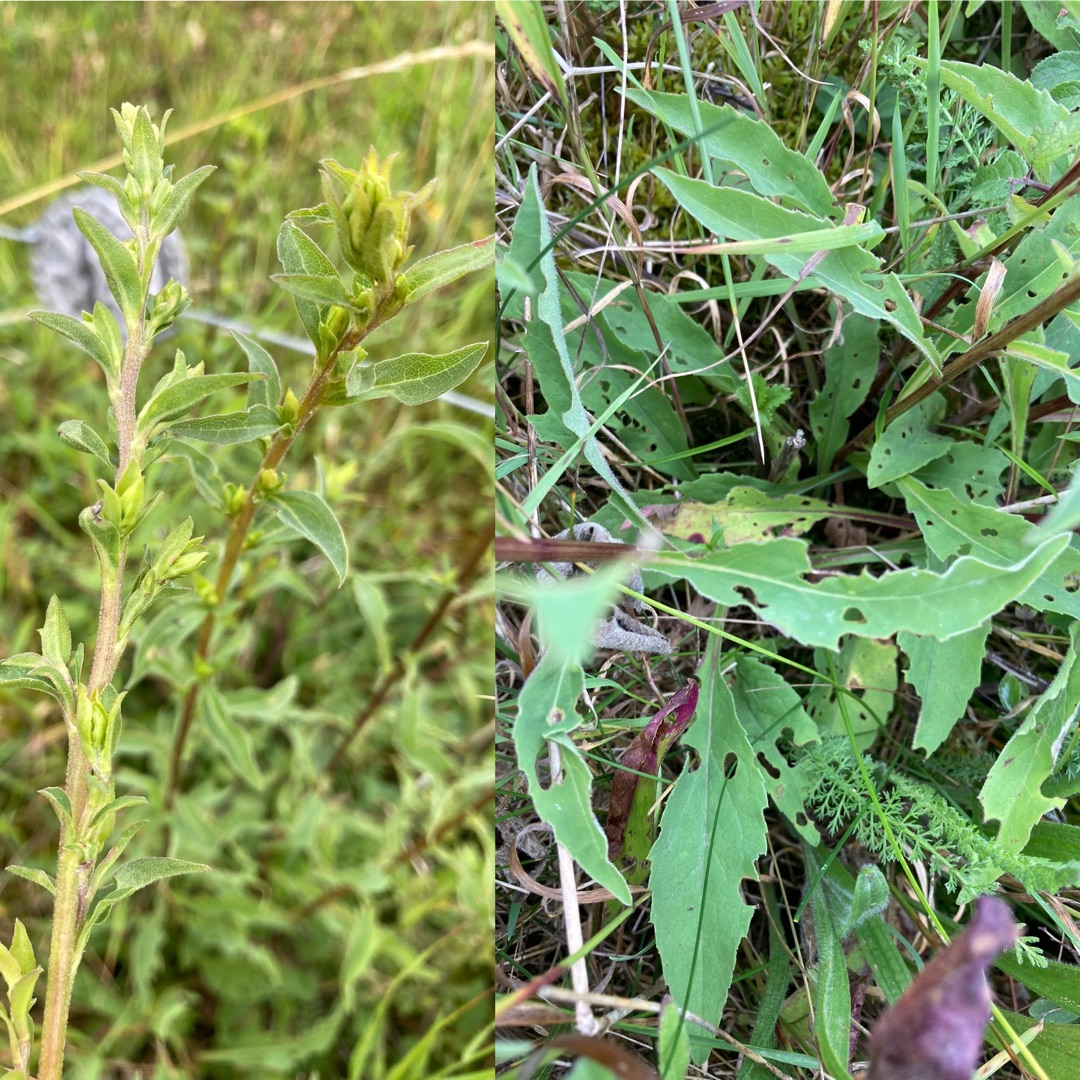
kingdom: Plantae
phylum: Tracheophyta
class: Magnoliopsida
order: Asterales
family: Asteraceae
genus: Solidago
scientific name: Solidago virgaurea
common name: Almindelig gyldenris
